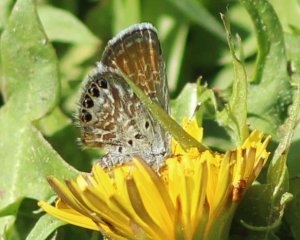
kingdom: Animalia
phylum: Arthropoda
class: Insecta
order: Lepidoptera
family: Lycaenidae
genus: Brephidium
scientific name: Brephidium exilis
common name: Western Pygmy-Blue
